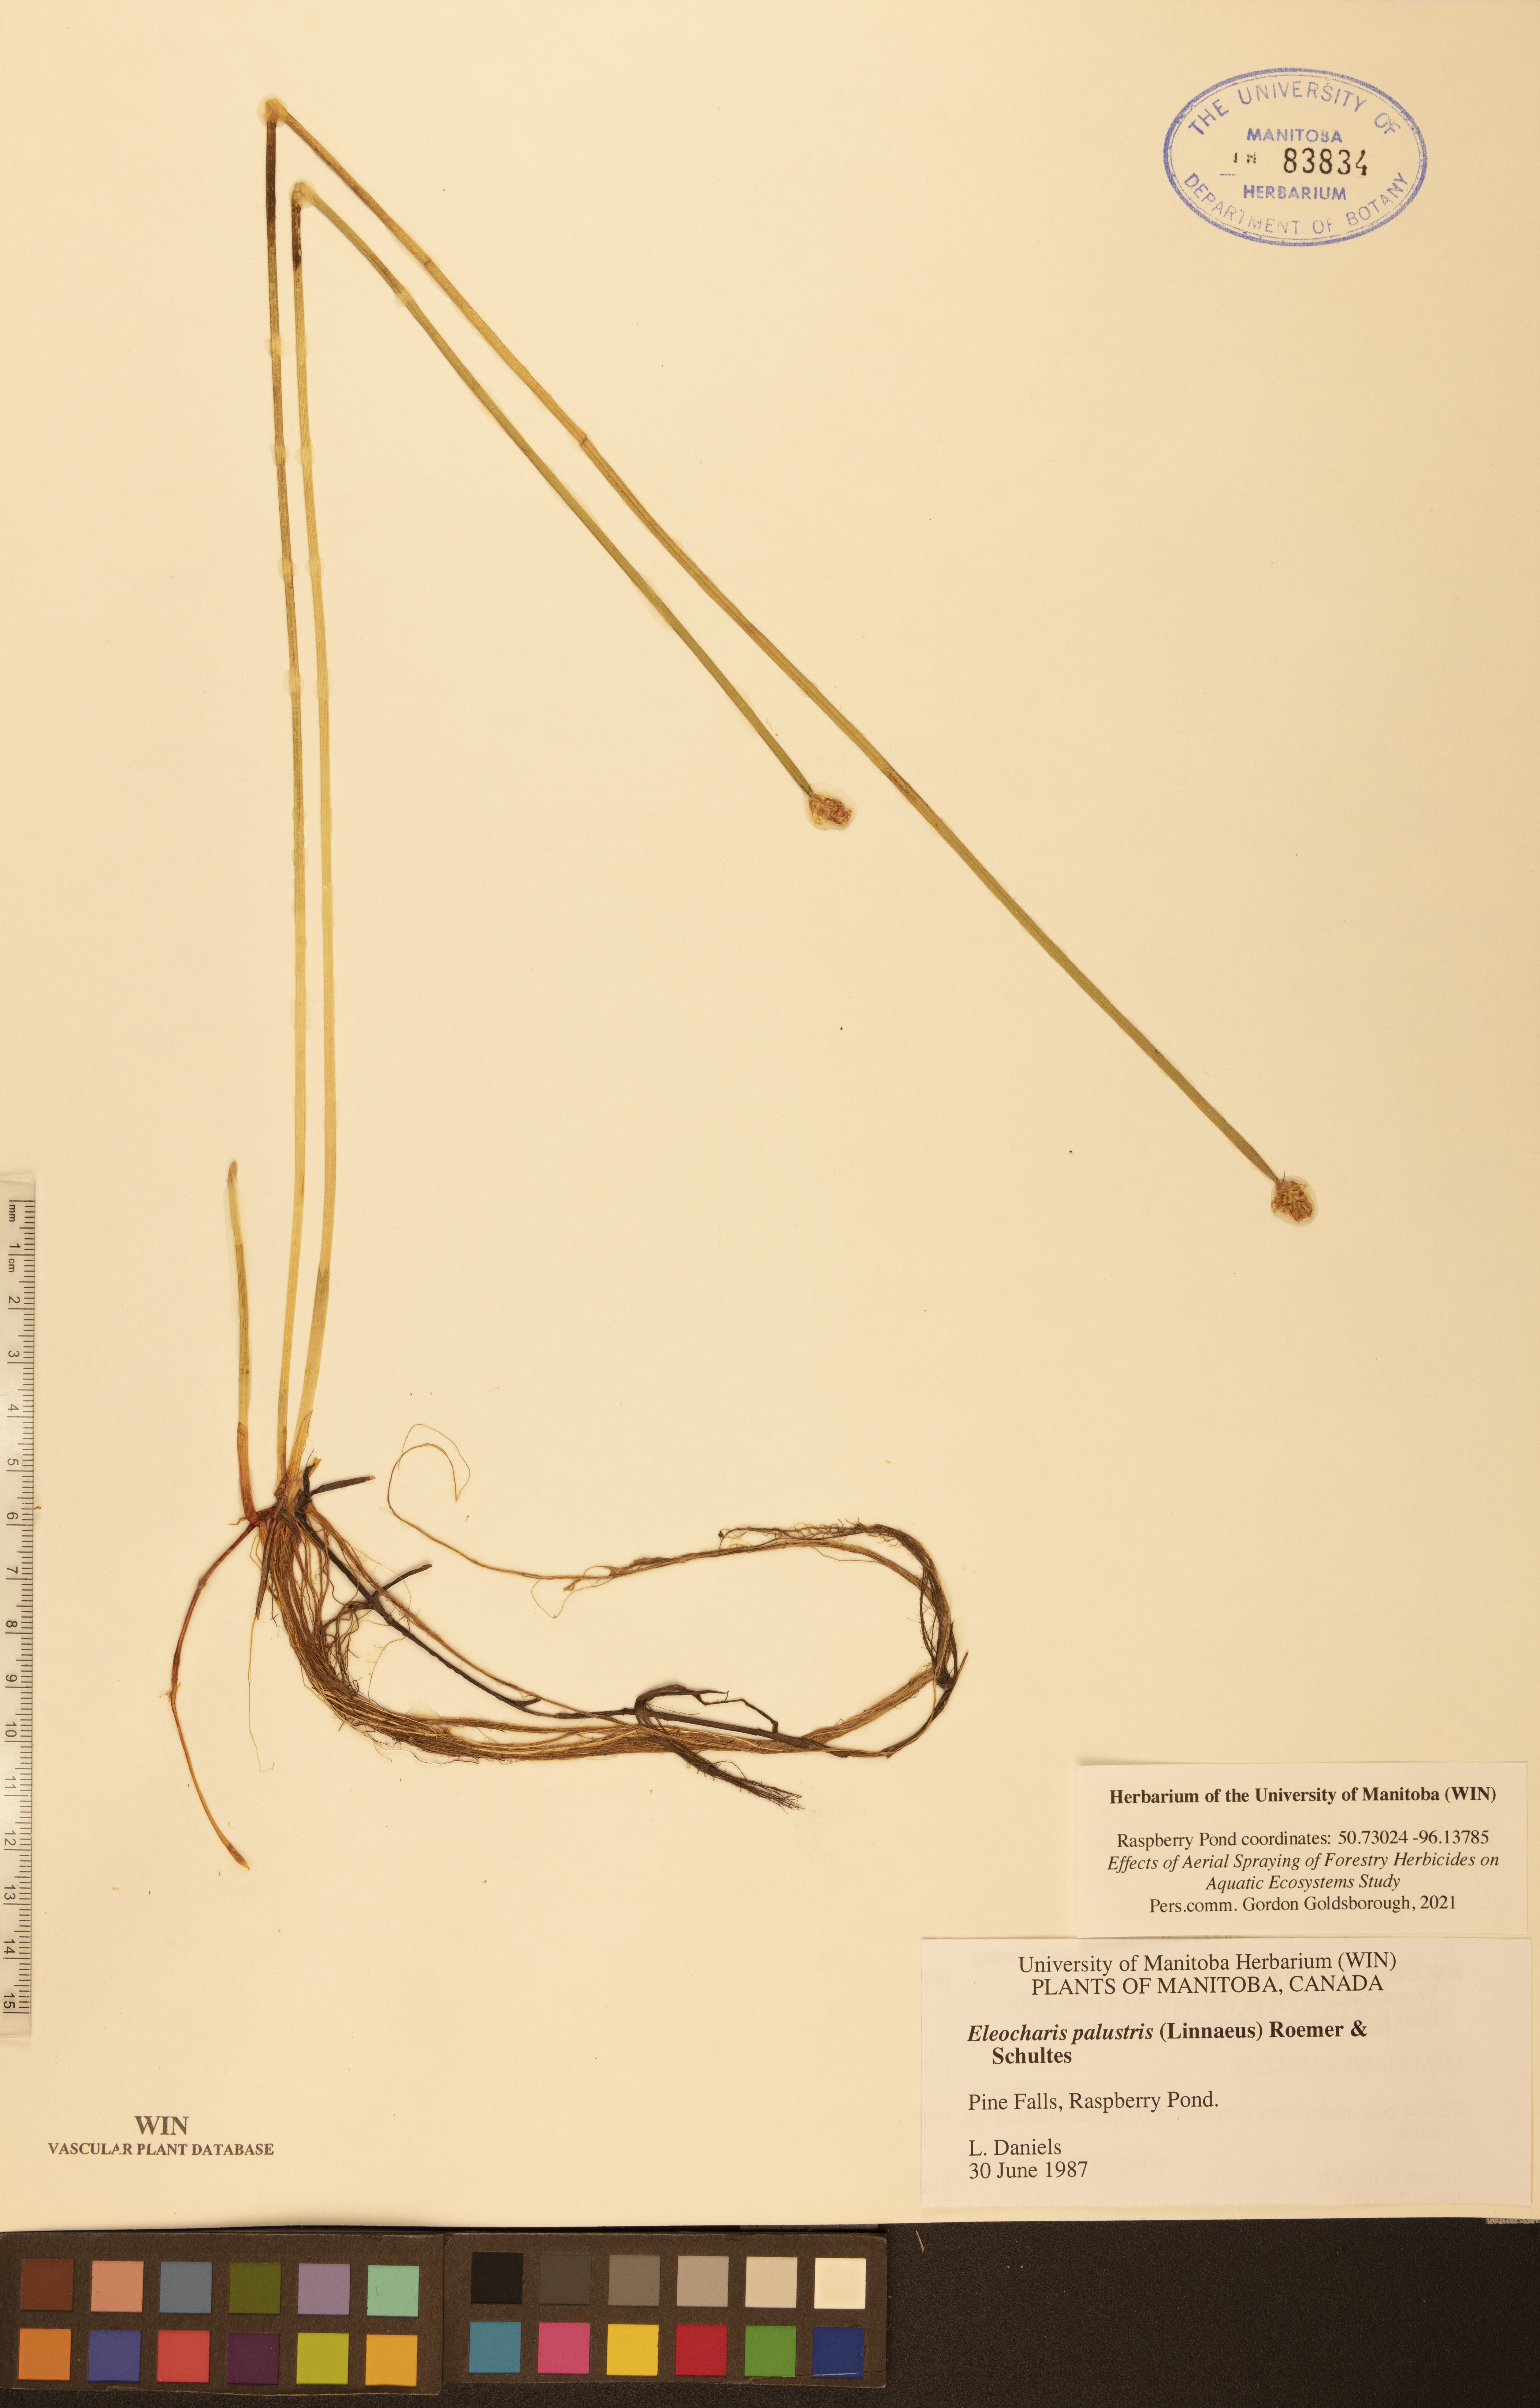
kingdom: Plantae
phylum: Tracheophyta
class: Liliopsida
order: Poales
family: Cyperaceae
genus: Eleocharis
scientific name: Eleocharis palustris
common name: Common spike-rush
